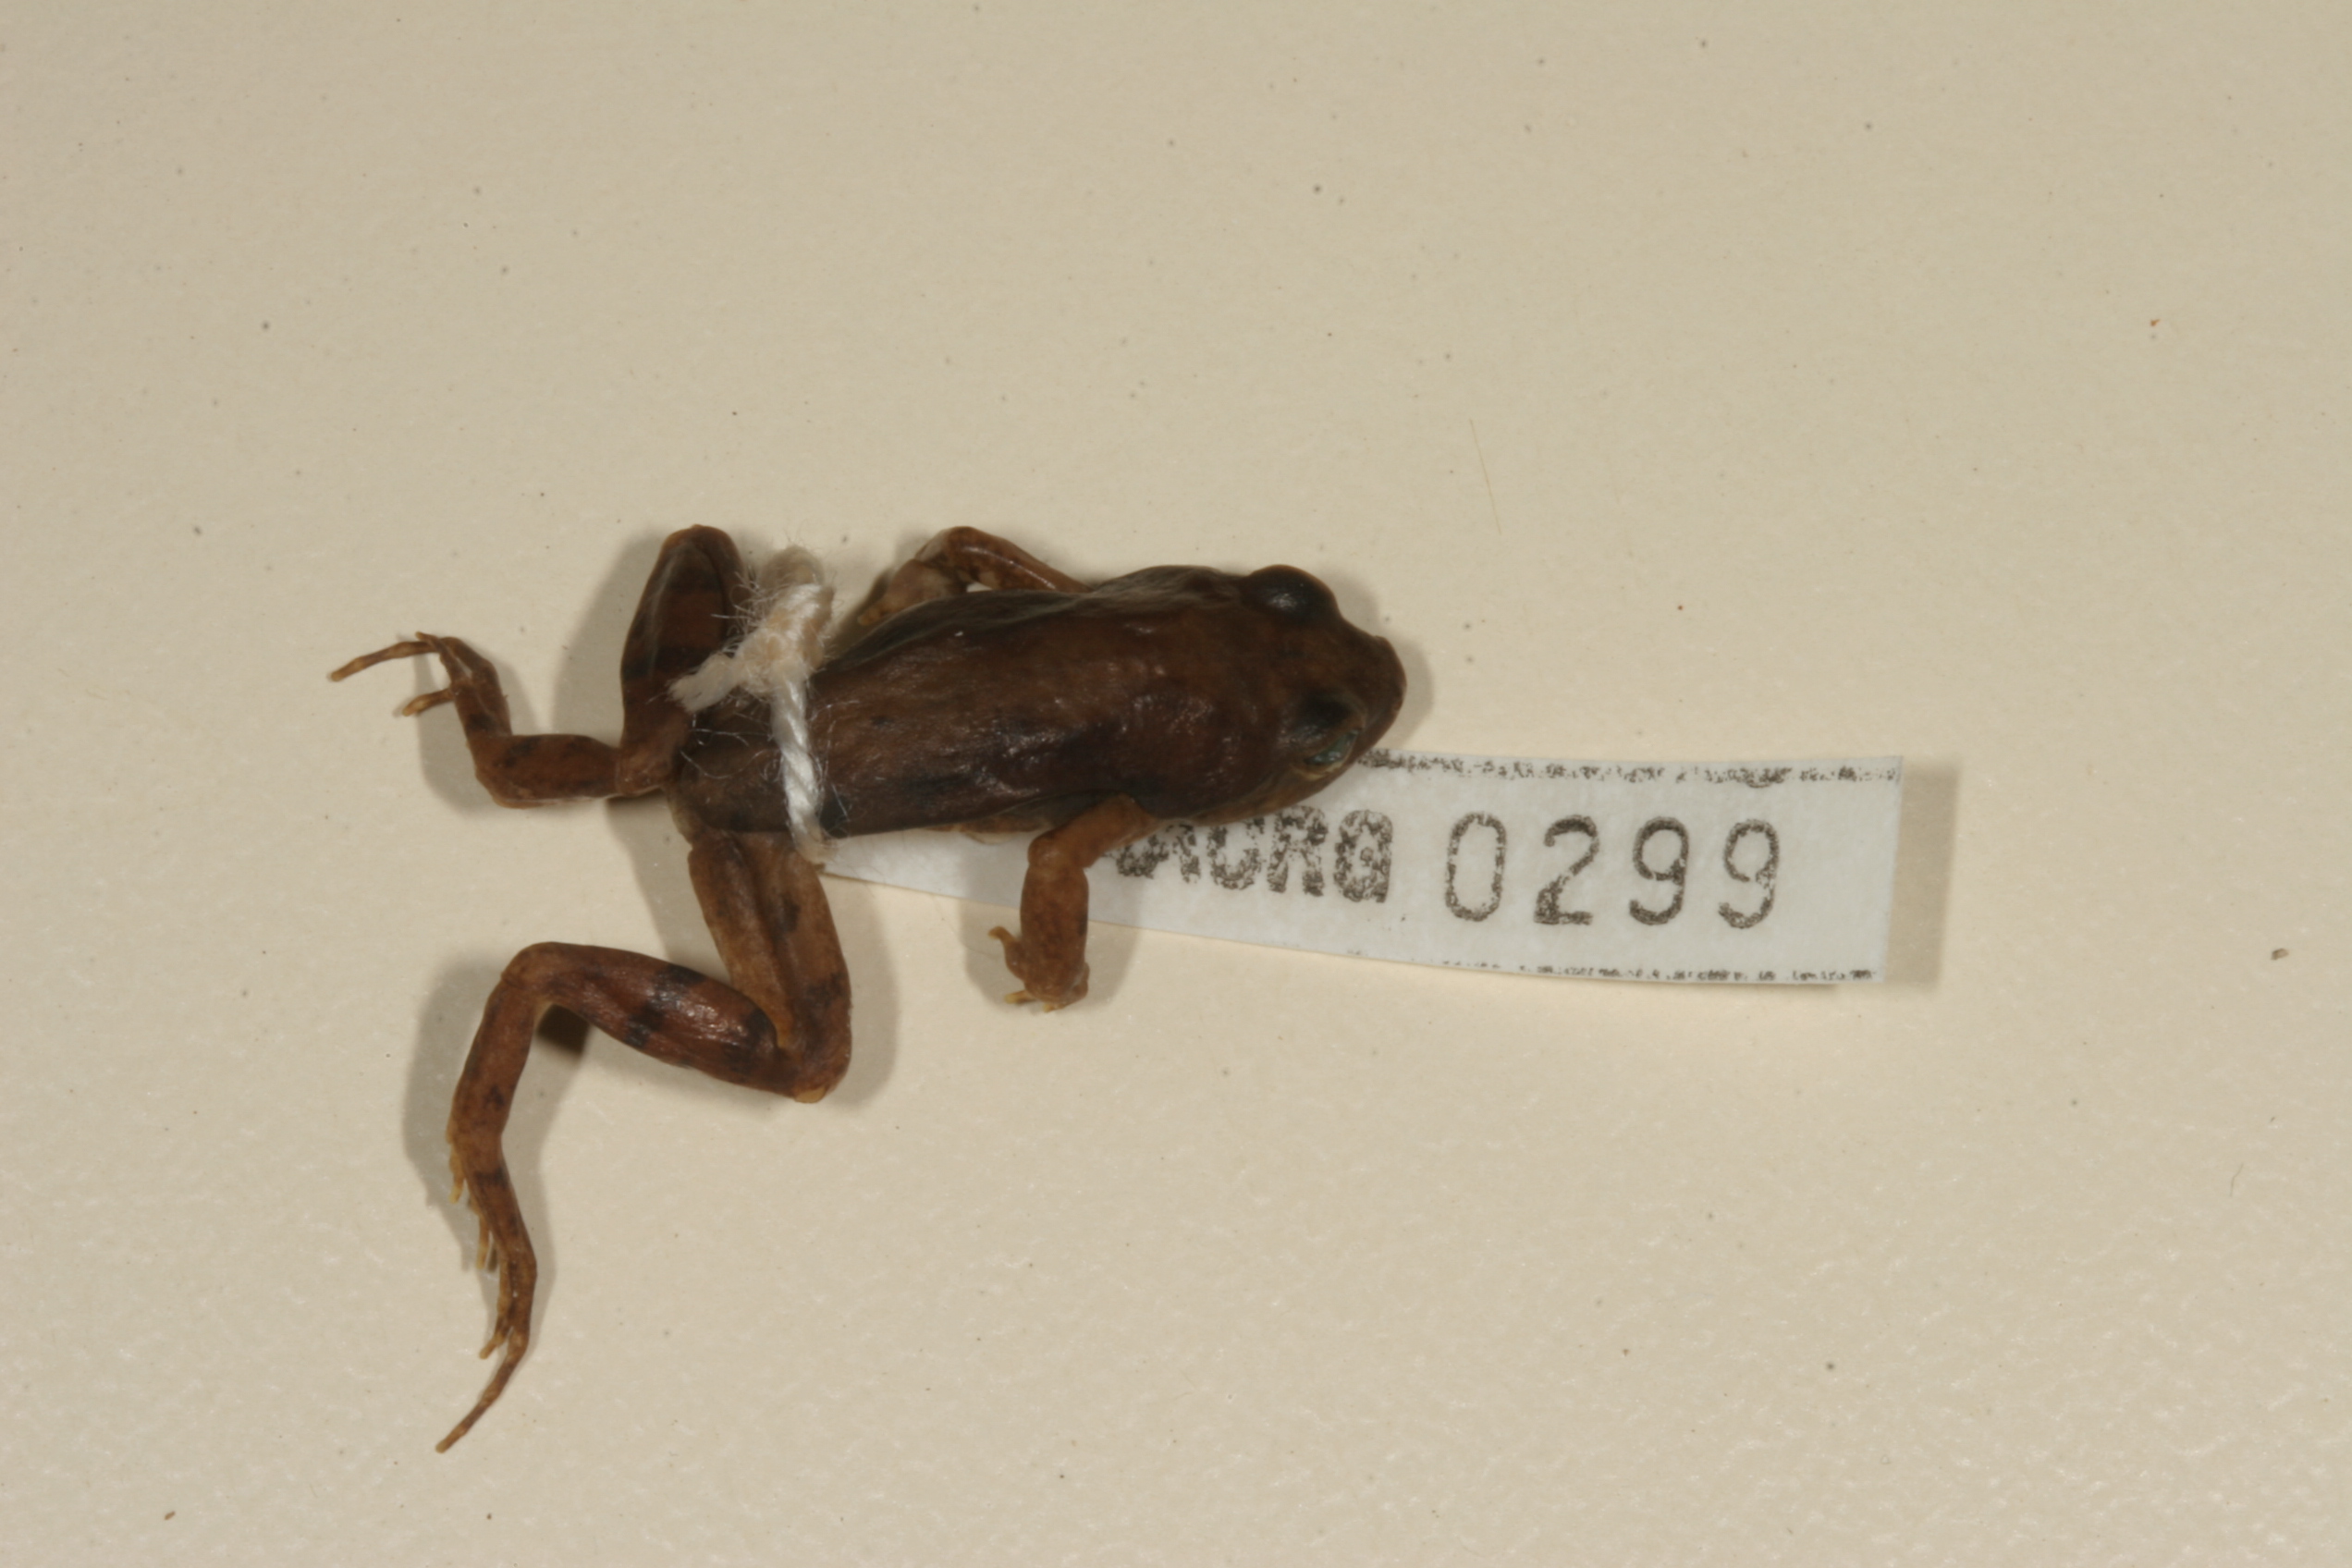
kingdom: Animalia
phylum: Chordata
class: Amphibia
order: Anura
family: Pyxicephalidae
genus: Cacosternum
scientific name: Cacosternum nanum
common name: Bronze dainty frog
